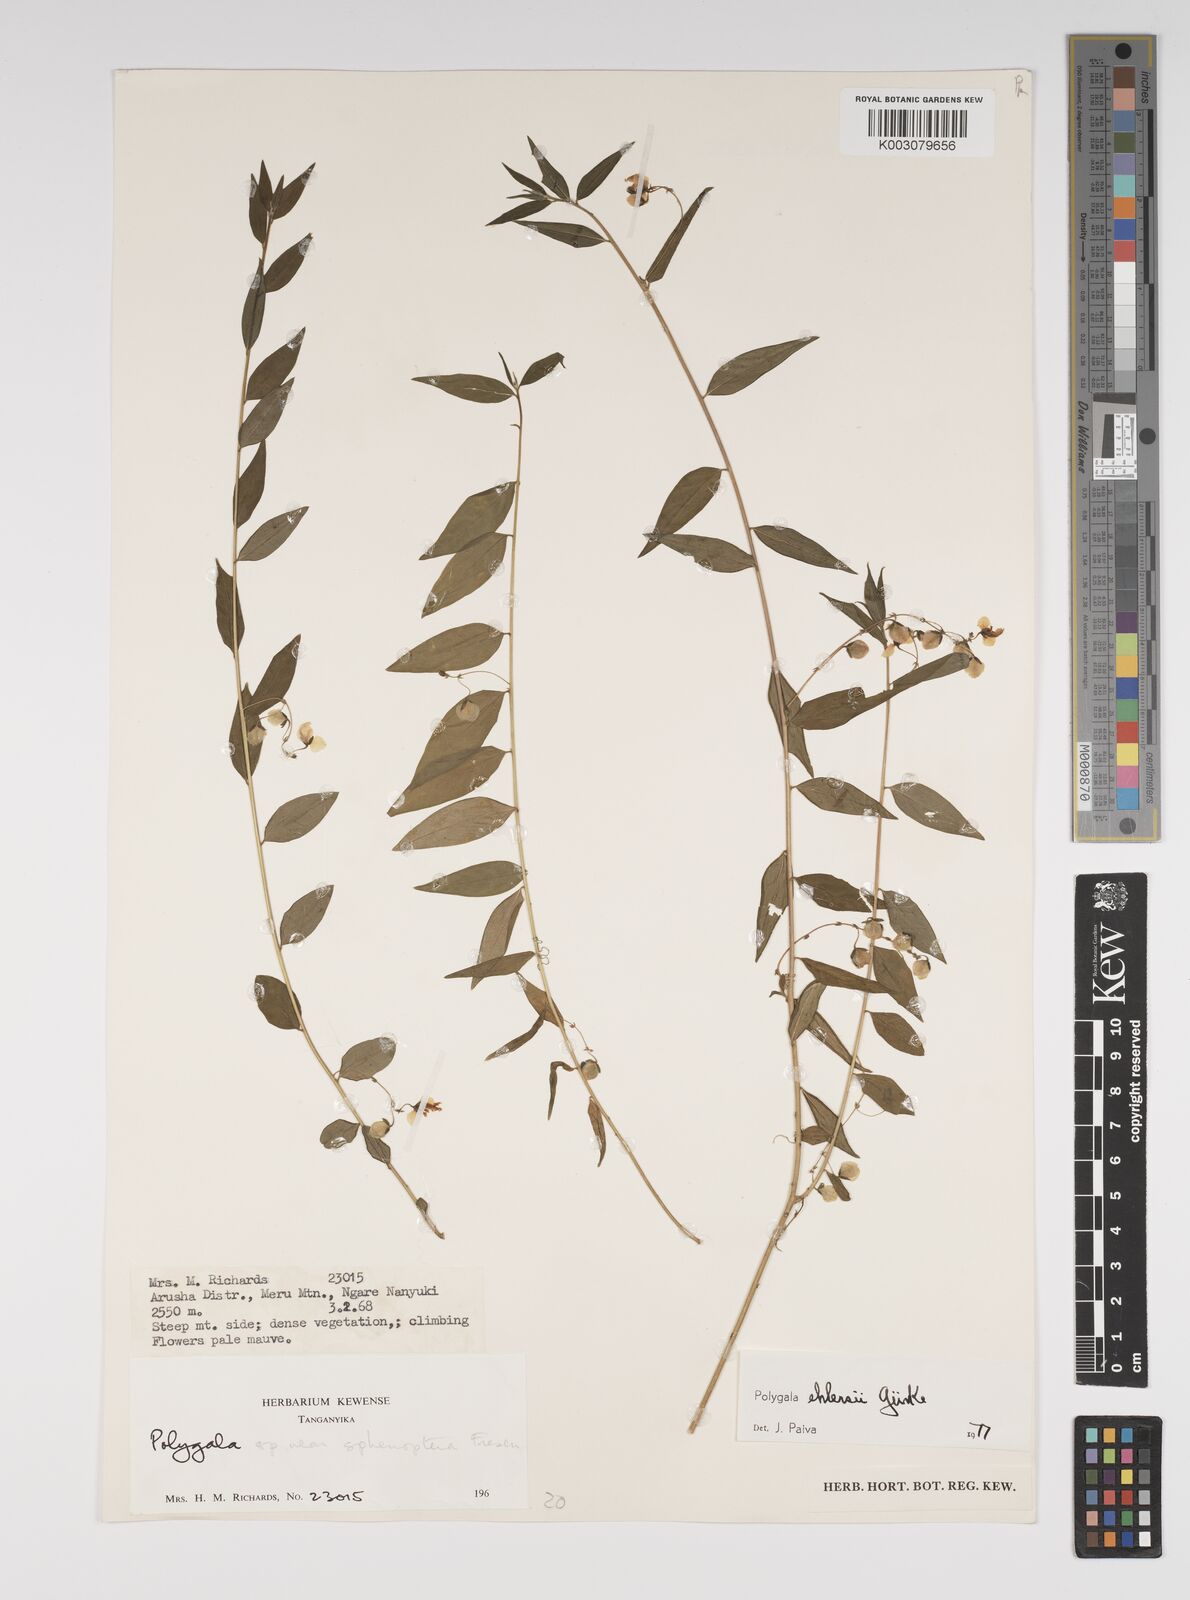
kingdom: Plantae
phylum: Tracheophyta
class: Magnoliopsida
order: Fabales
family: Polygalaceae
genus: Polygala
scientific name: Polygala ehlersii
